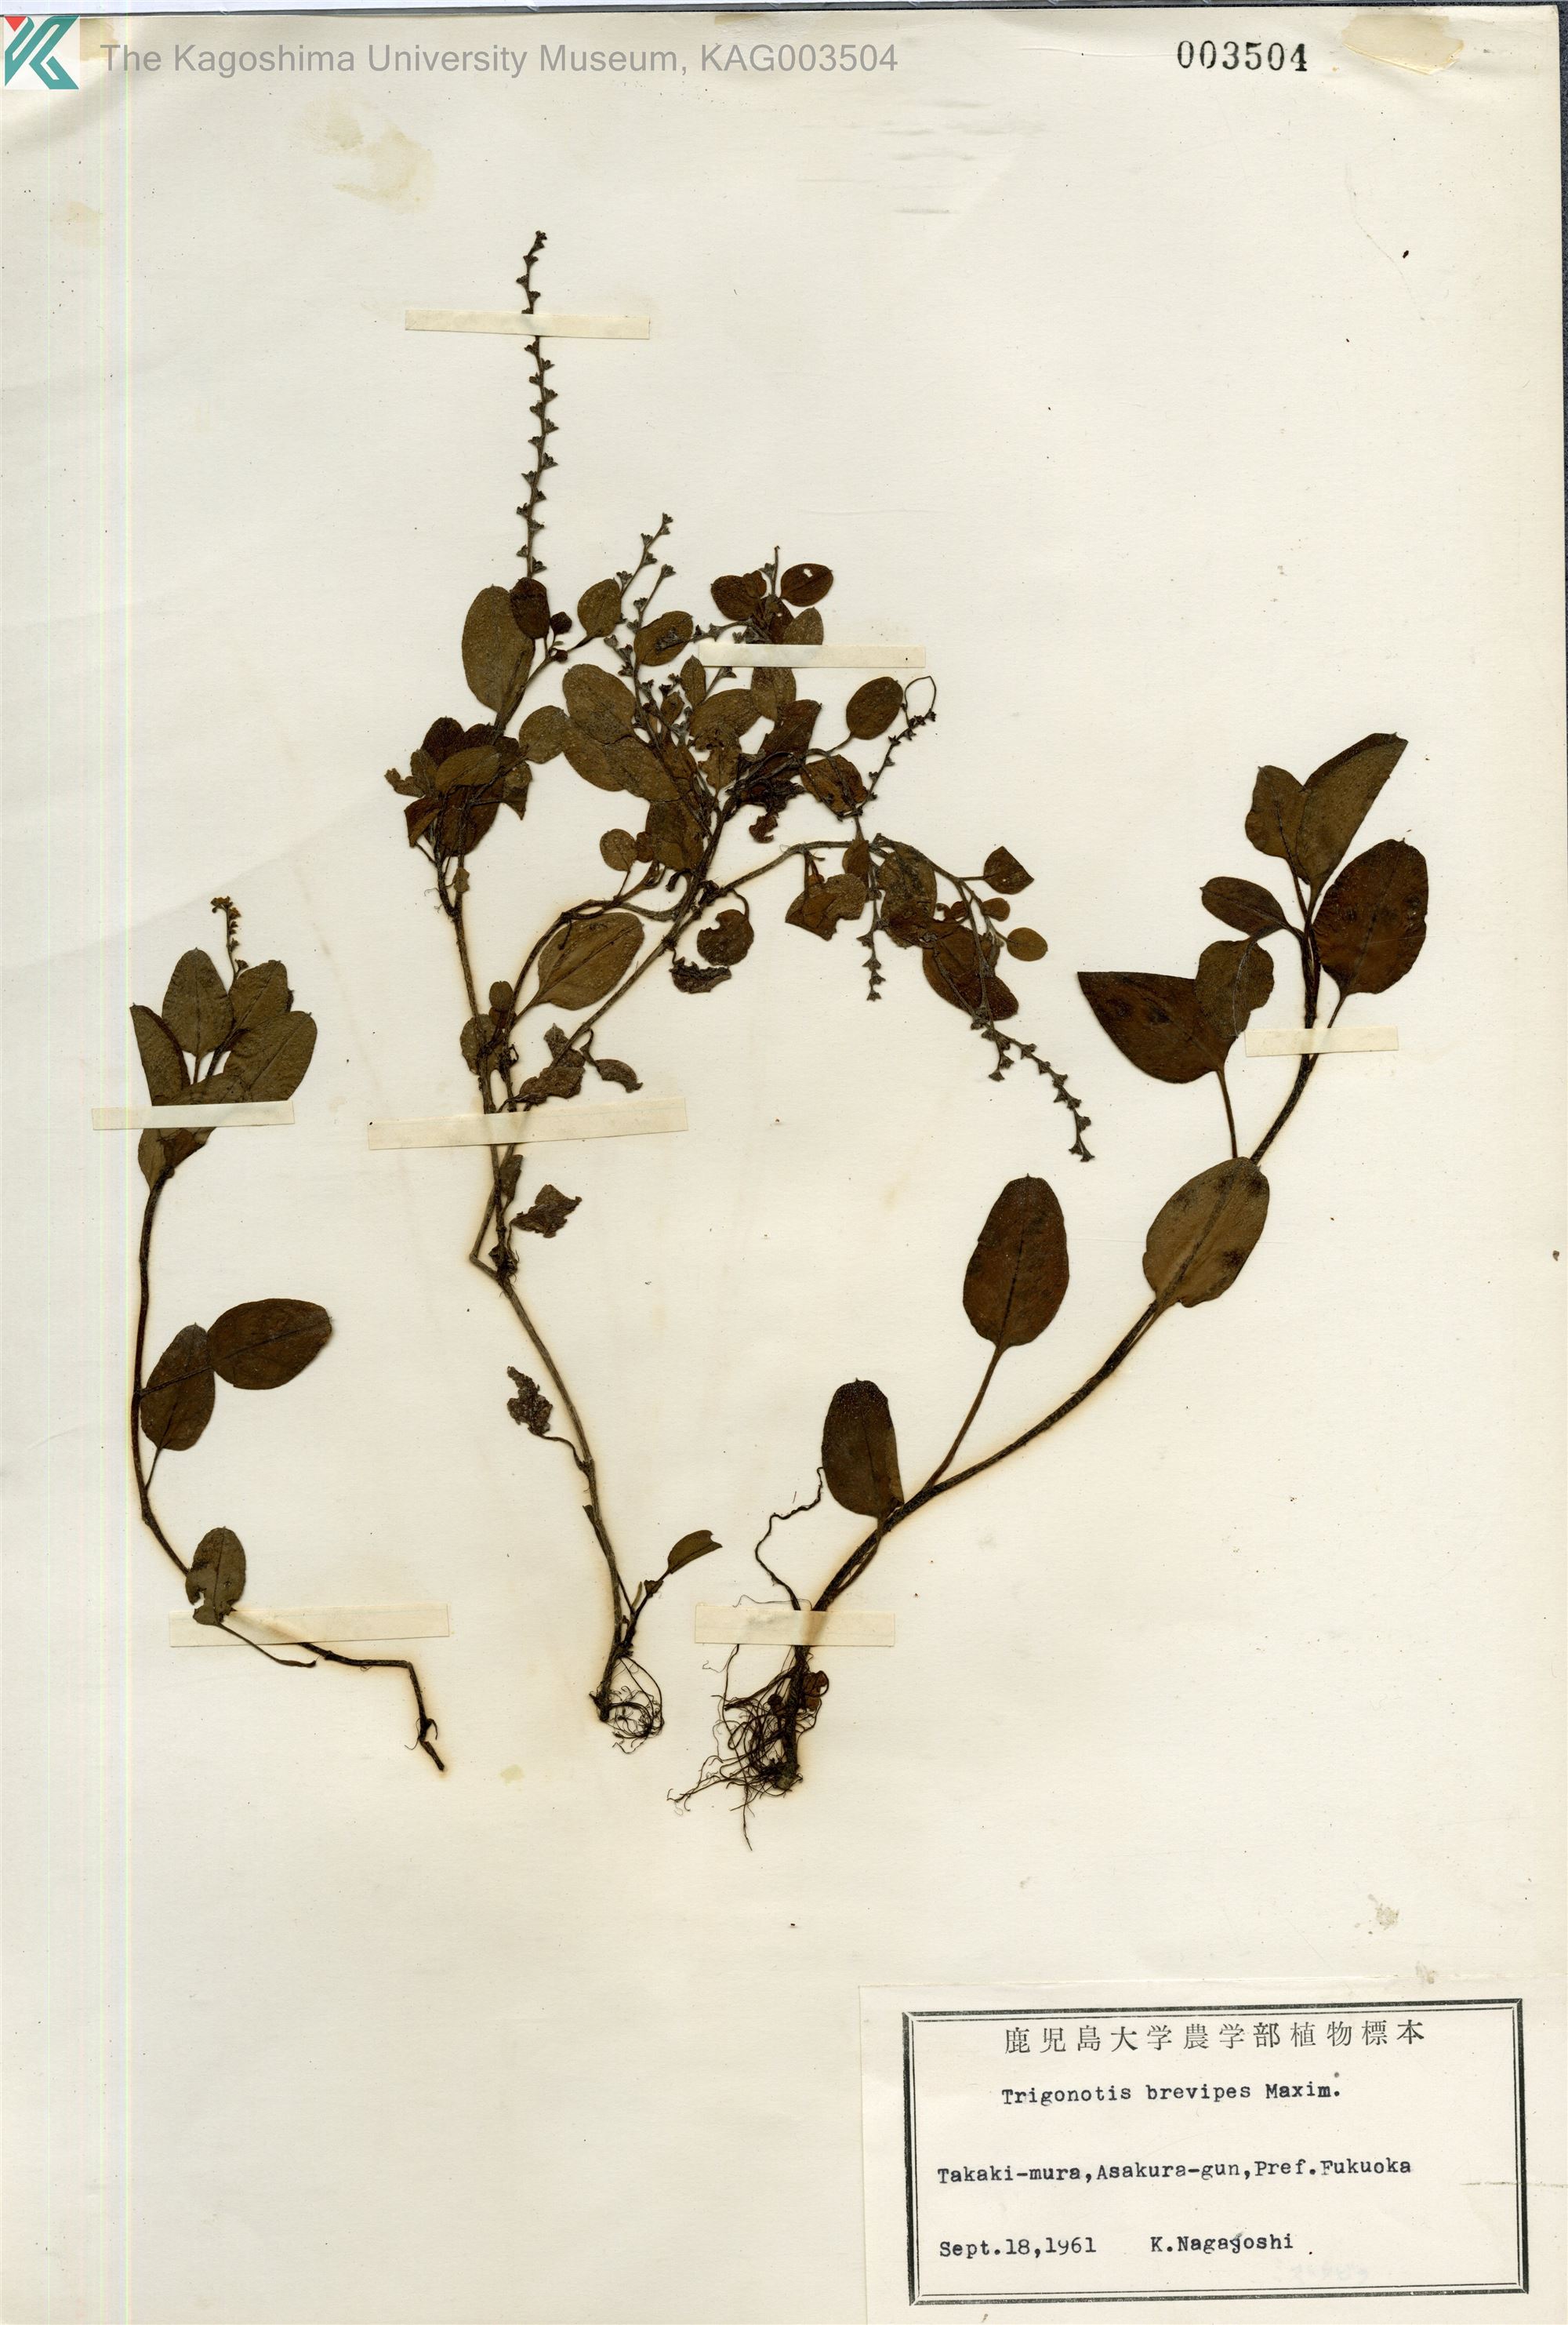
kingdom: Plantae
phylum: Tracheophyta
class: Magnoliopsida
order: Boraginales
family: Boraginaceae
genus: Trigonotis
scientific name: Trigonotis brevipes
